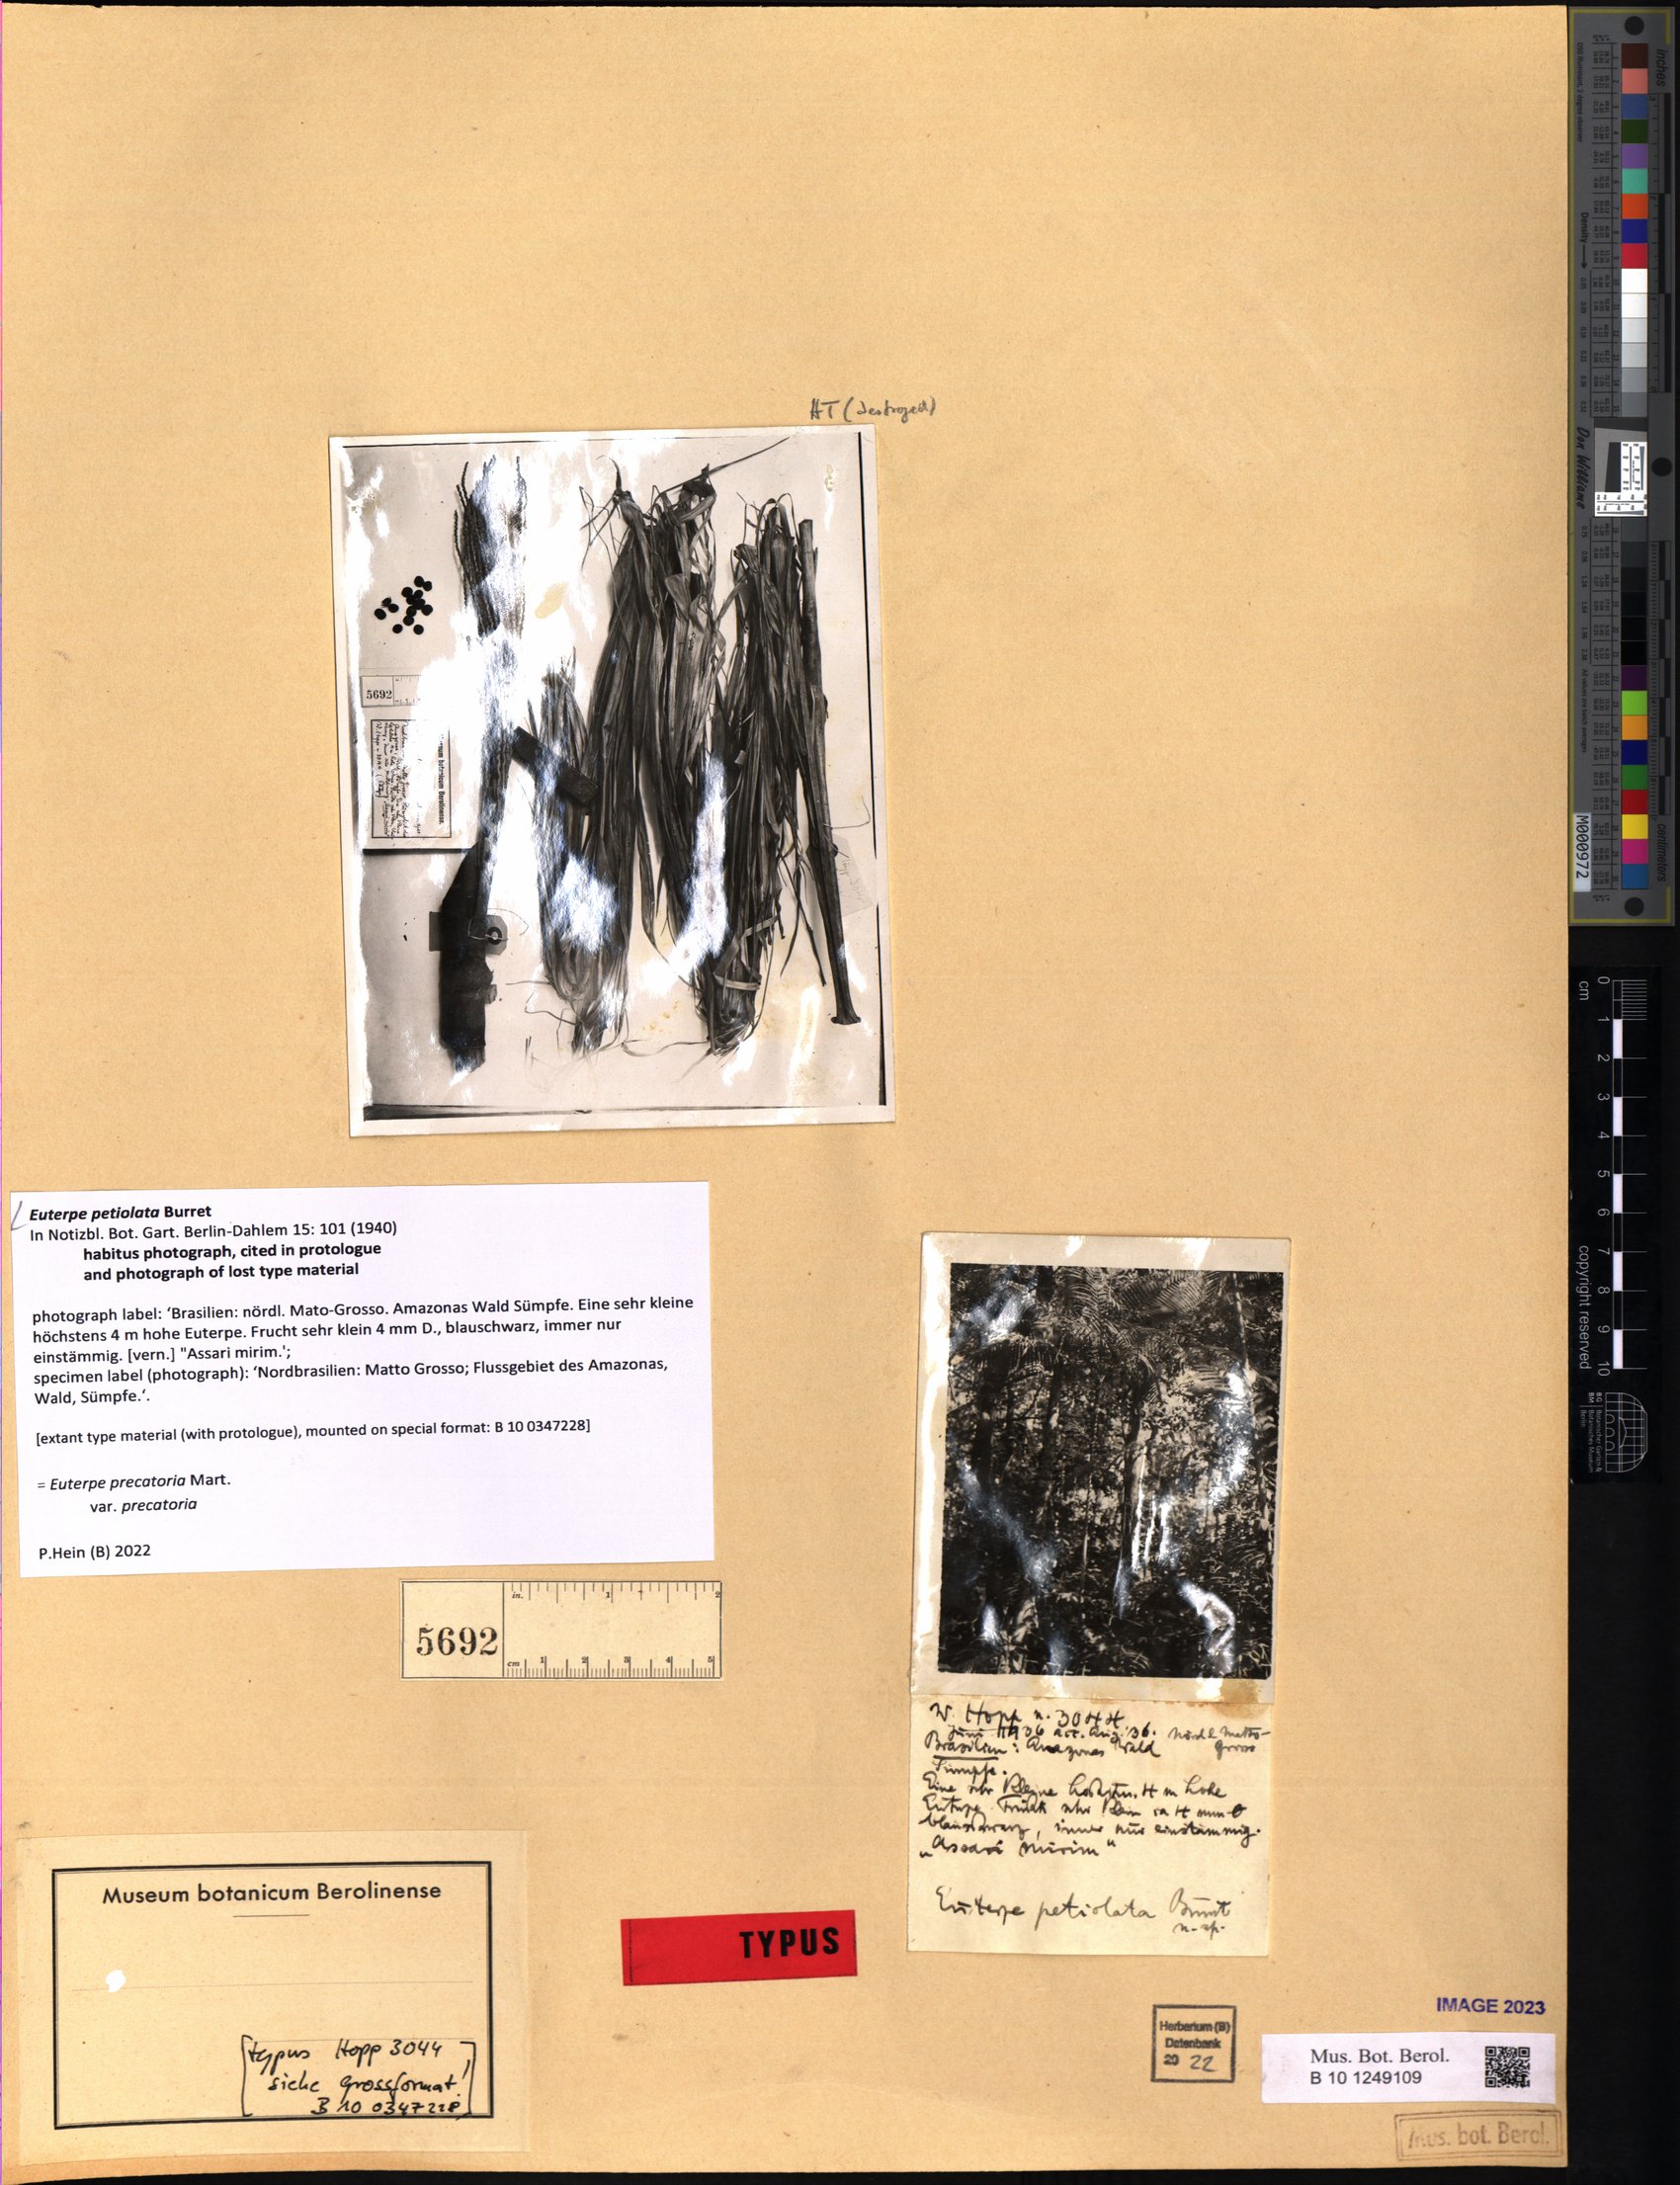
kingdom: Plantae
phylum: Tracheophyta
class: Liliopsida
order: Arecales
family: Arecaceae
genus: Euterpe
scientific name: Euterpe precatoria
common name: Mountain-cabbage
